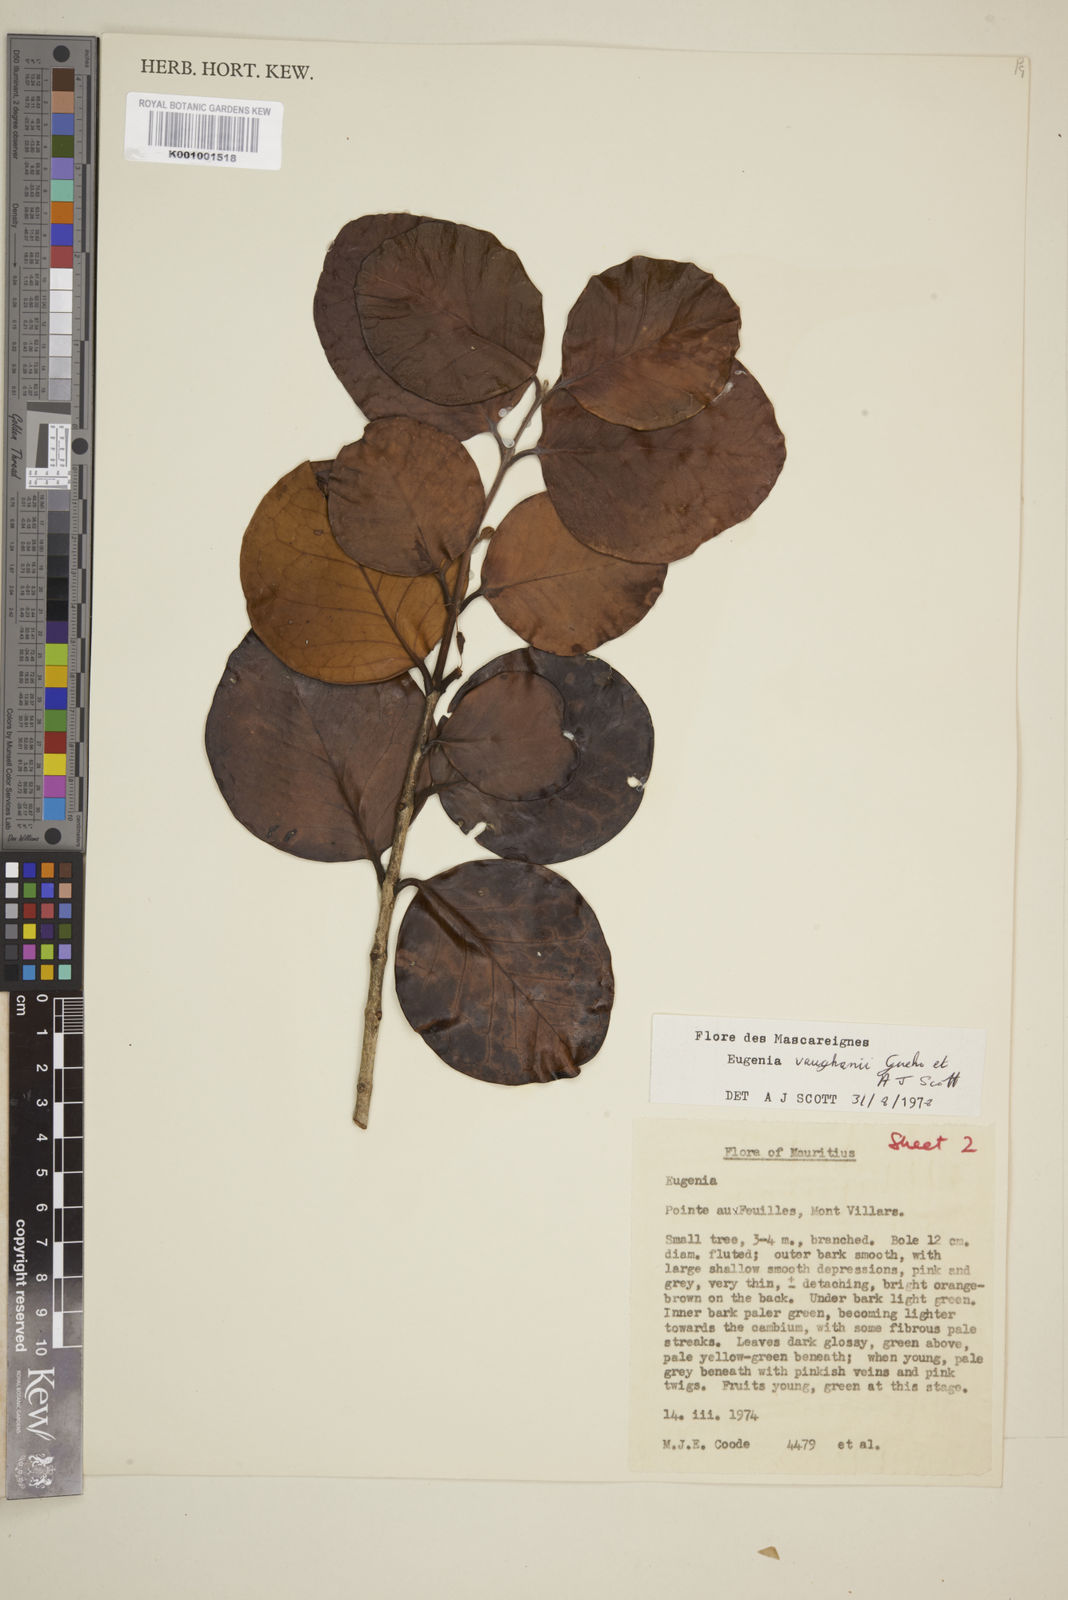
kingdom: Plantae
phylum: Tracheophyta
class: Magnoliopsida
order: Myrtales
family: Myrtaceae
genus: Eugenia
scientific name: Eugenia
